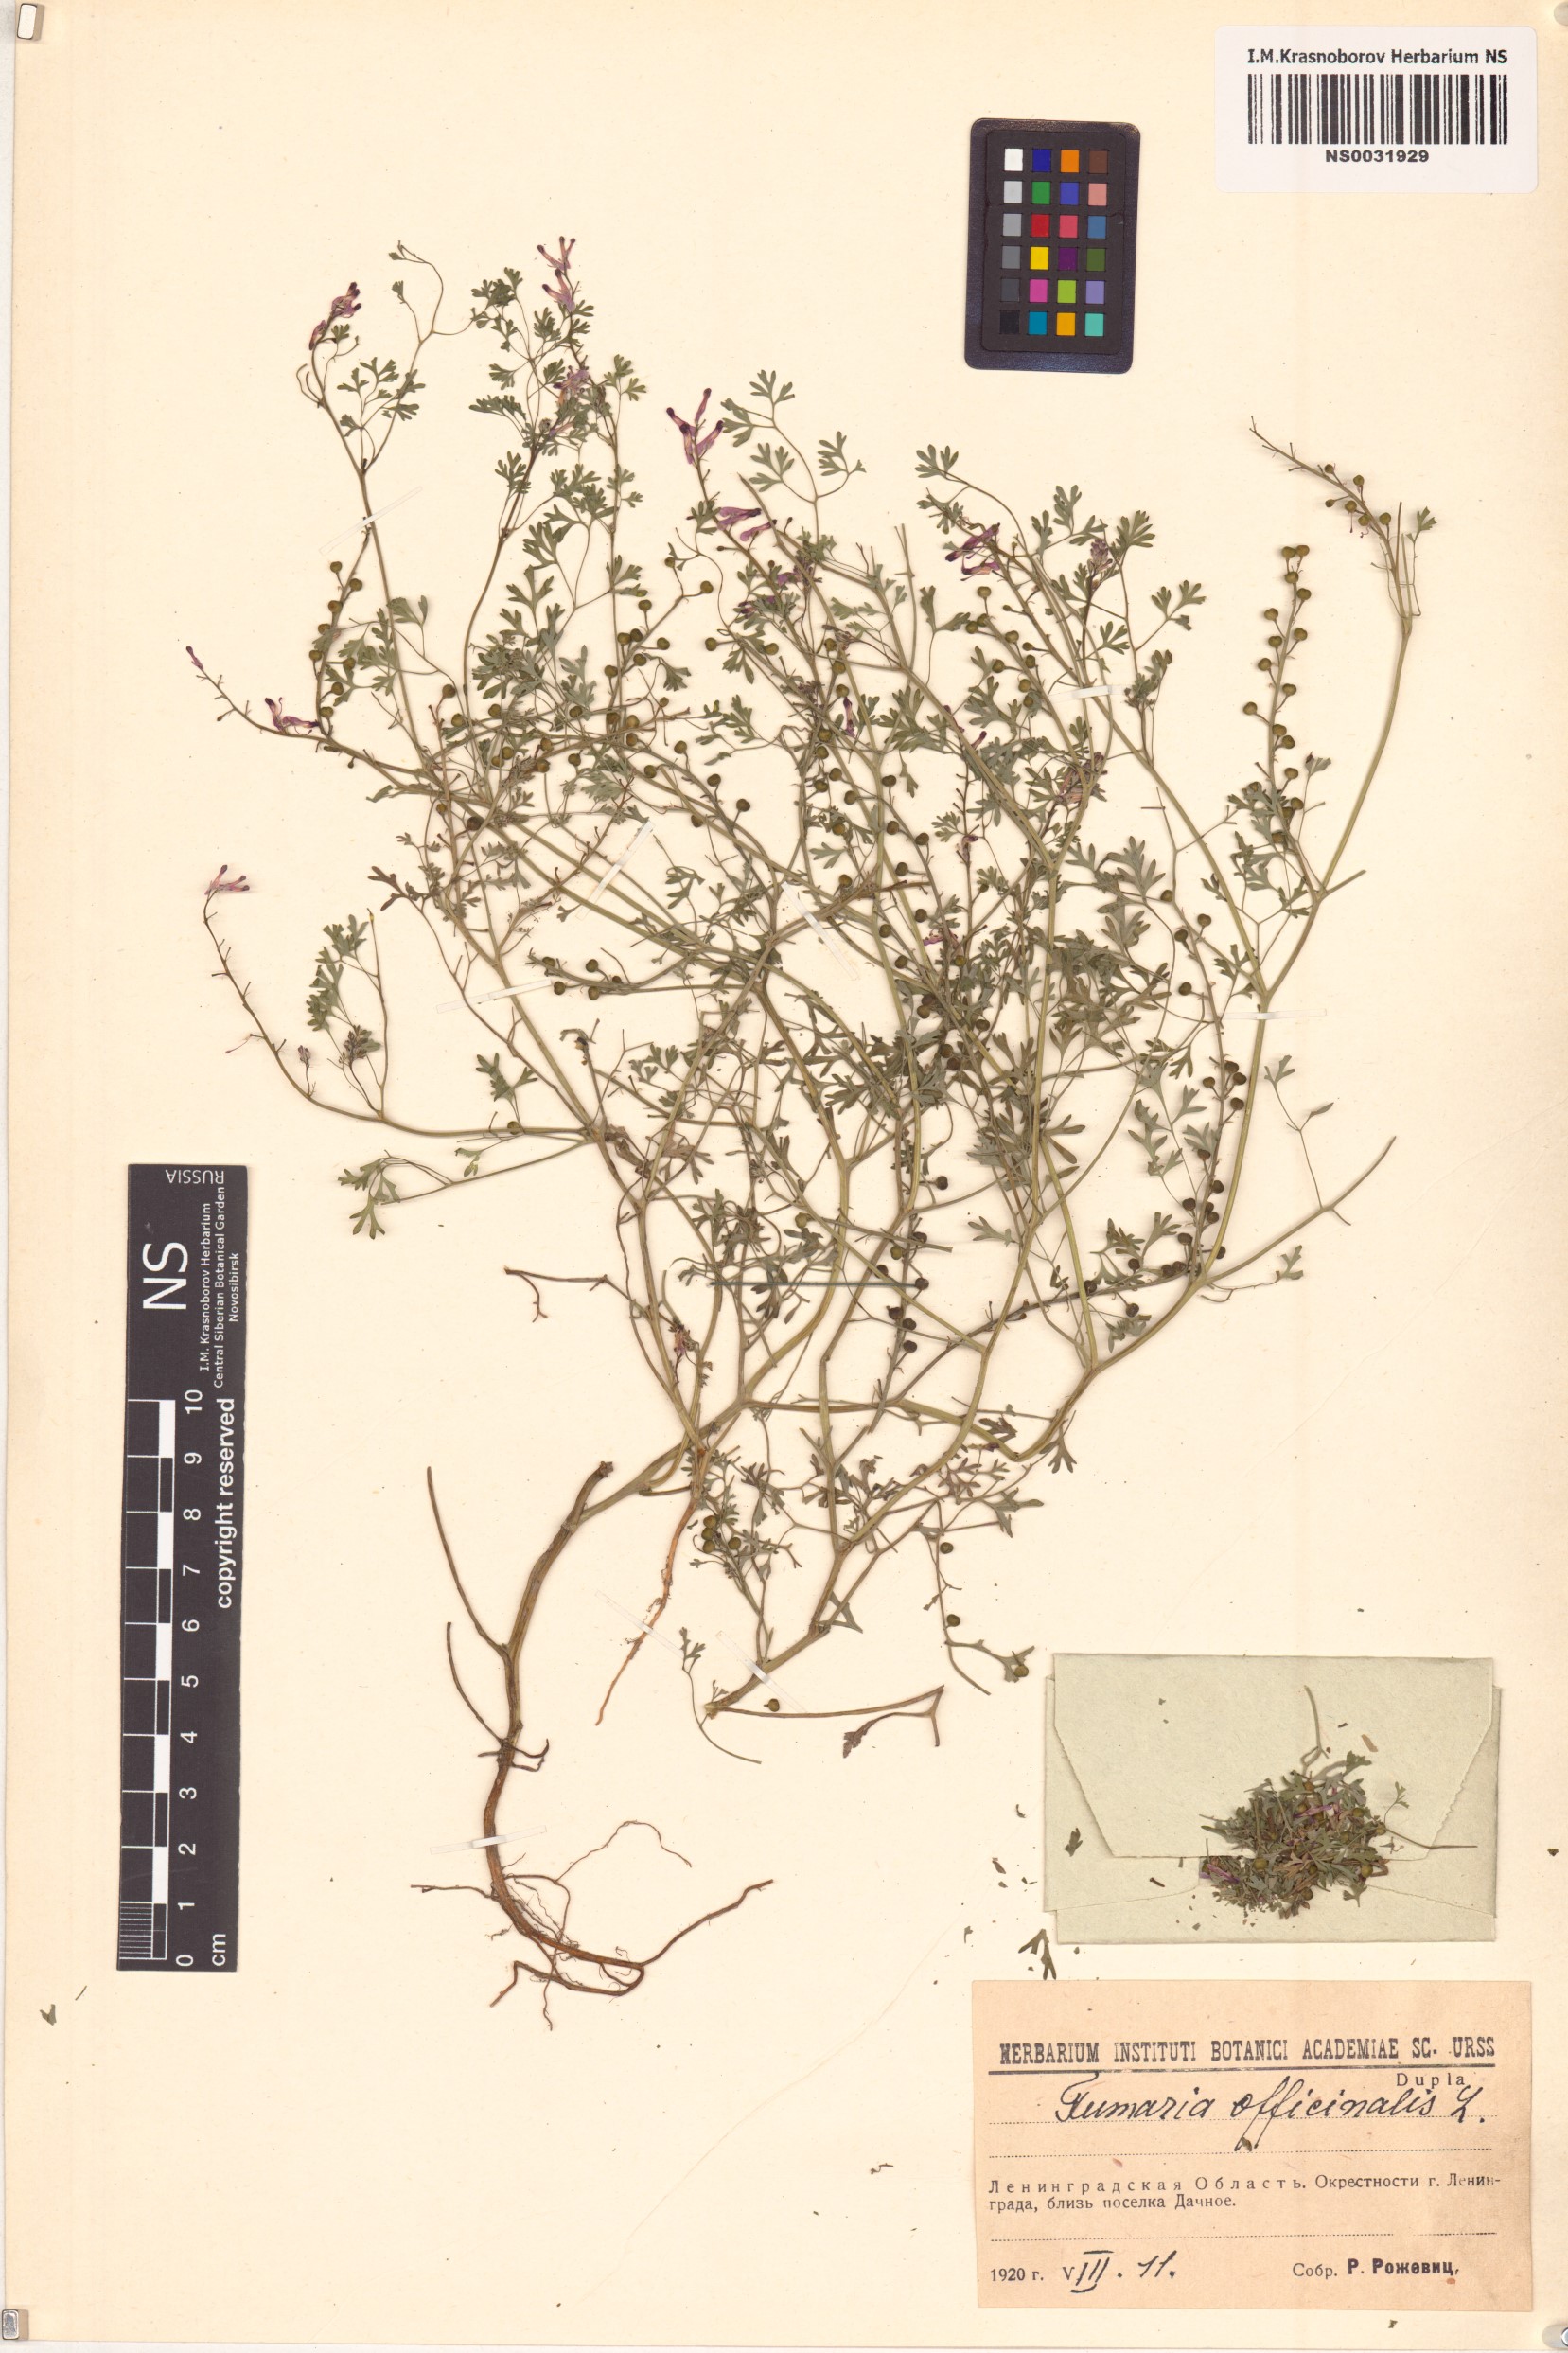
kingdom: Plantae
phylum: Tracheophyta
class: Magnoliopsida
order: Ranunculales
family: Papaveraceae
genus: Fumaria
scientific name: Fumaria officinalis
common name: Common fumitory
